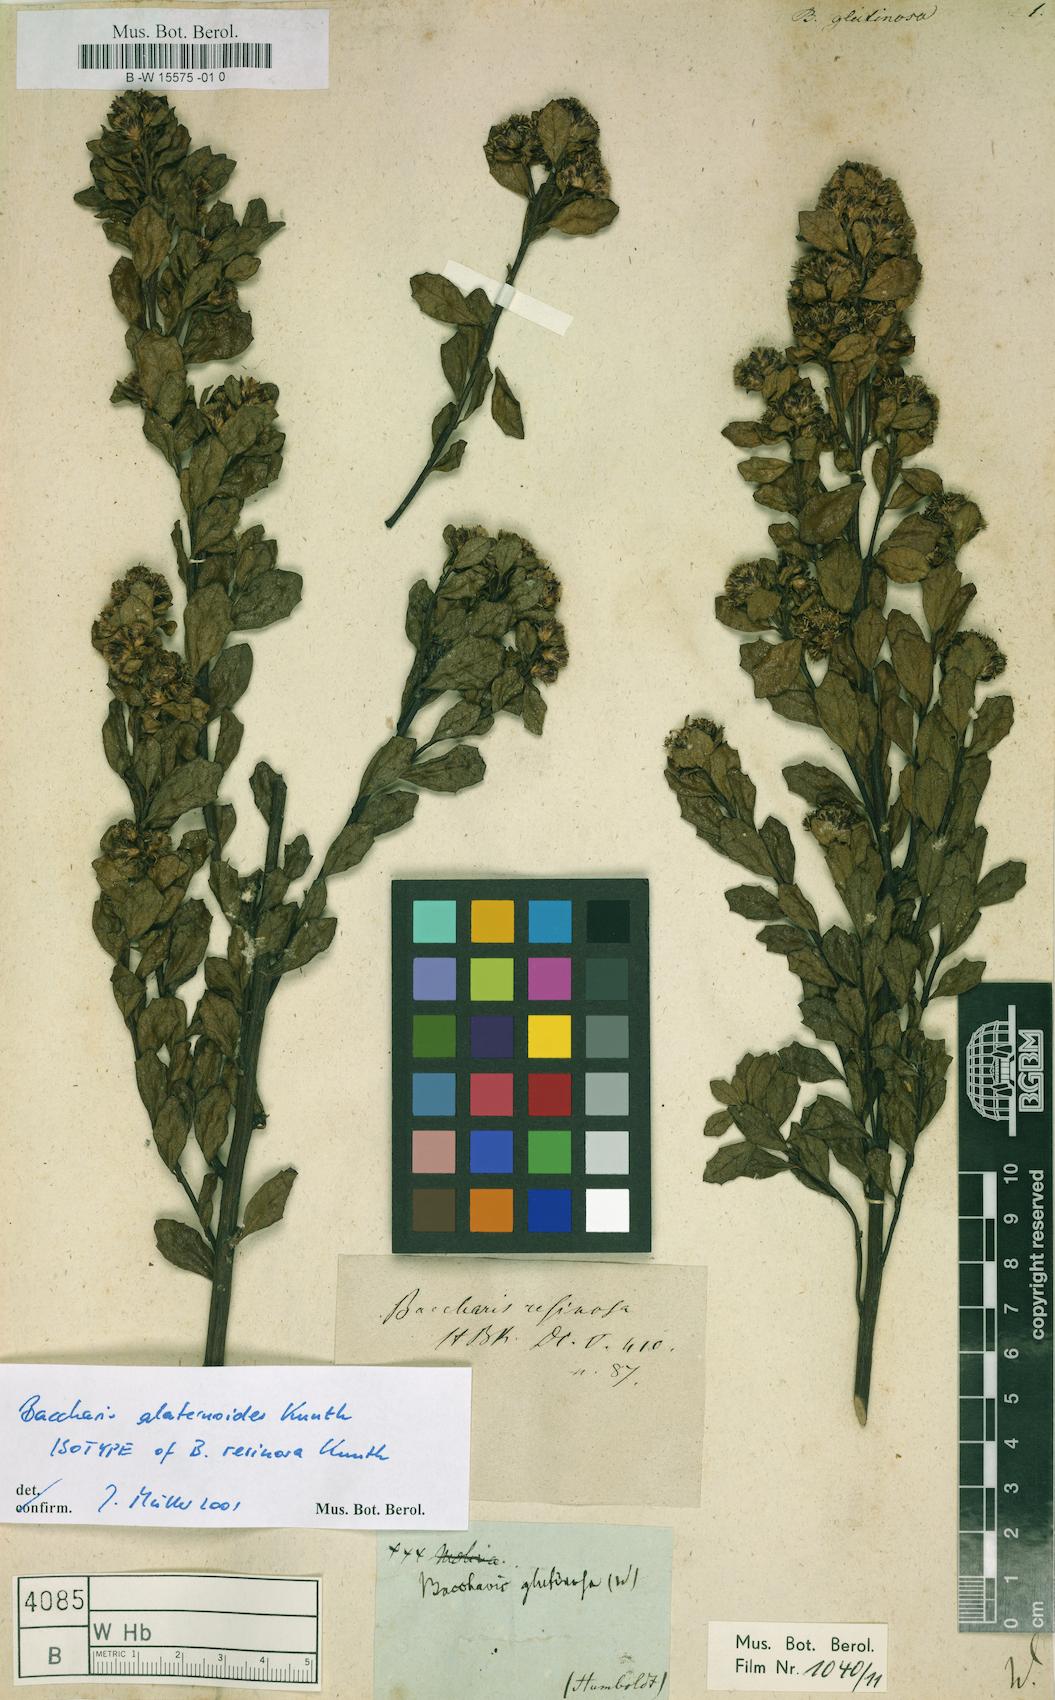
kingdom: Plantae
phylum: Tracheophyta
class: Magnoliopsida
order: Asterales
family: Asteraceae
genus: Baccharis
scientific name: Baccharis glutinosa
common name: Saltmarsh baccharis
